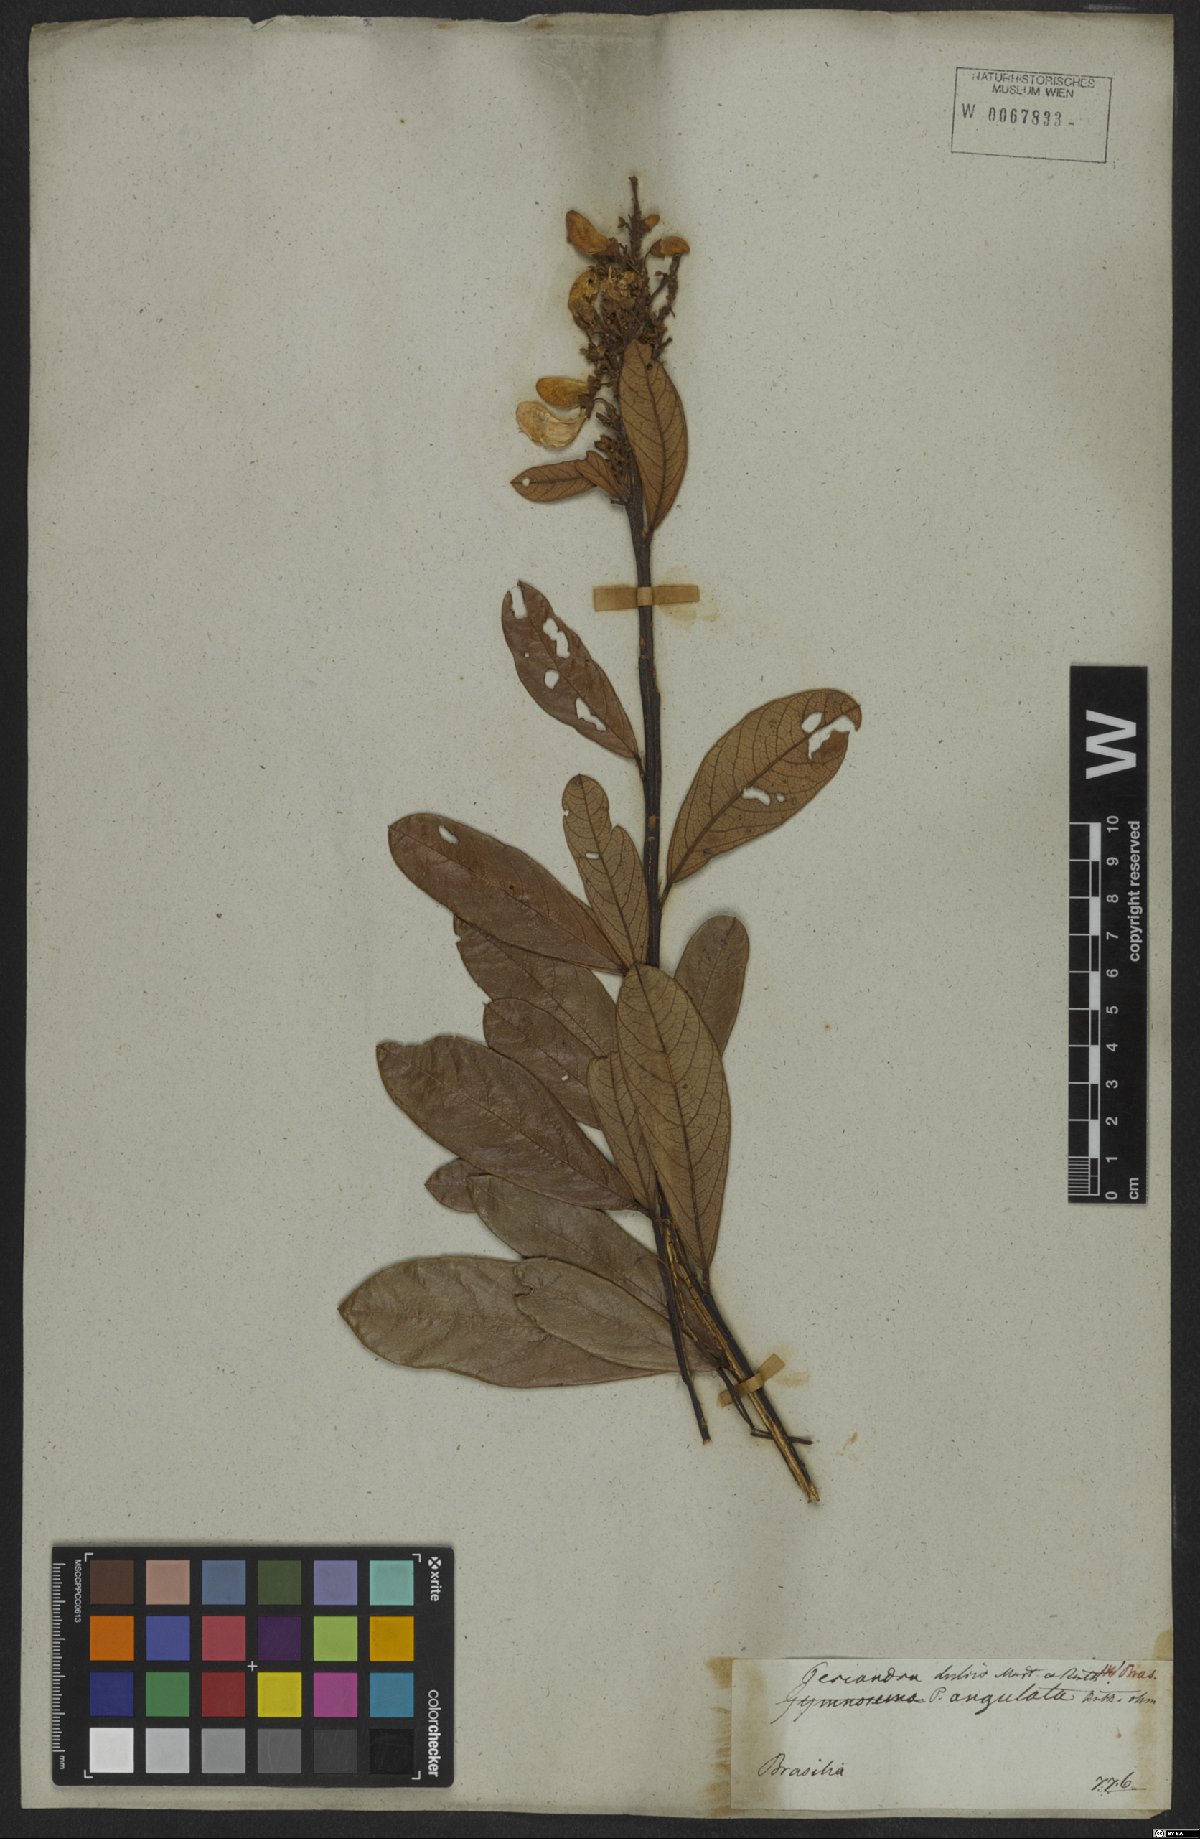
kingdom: Plantae
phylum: Tracheophyta
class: Magnoliopsida
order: Fabales
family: Fabaceae
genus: Periandra
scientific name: Periandra mediterranea
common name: Brazilian licorice
